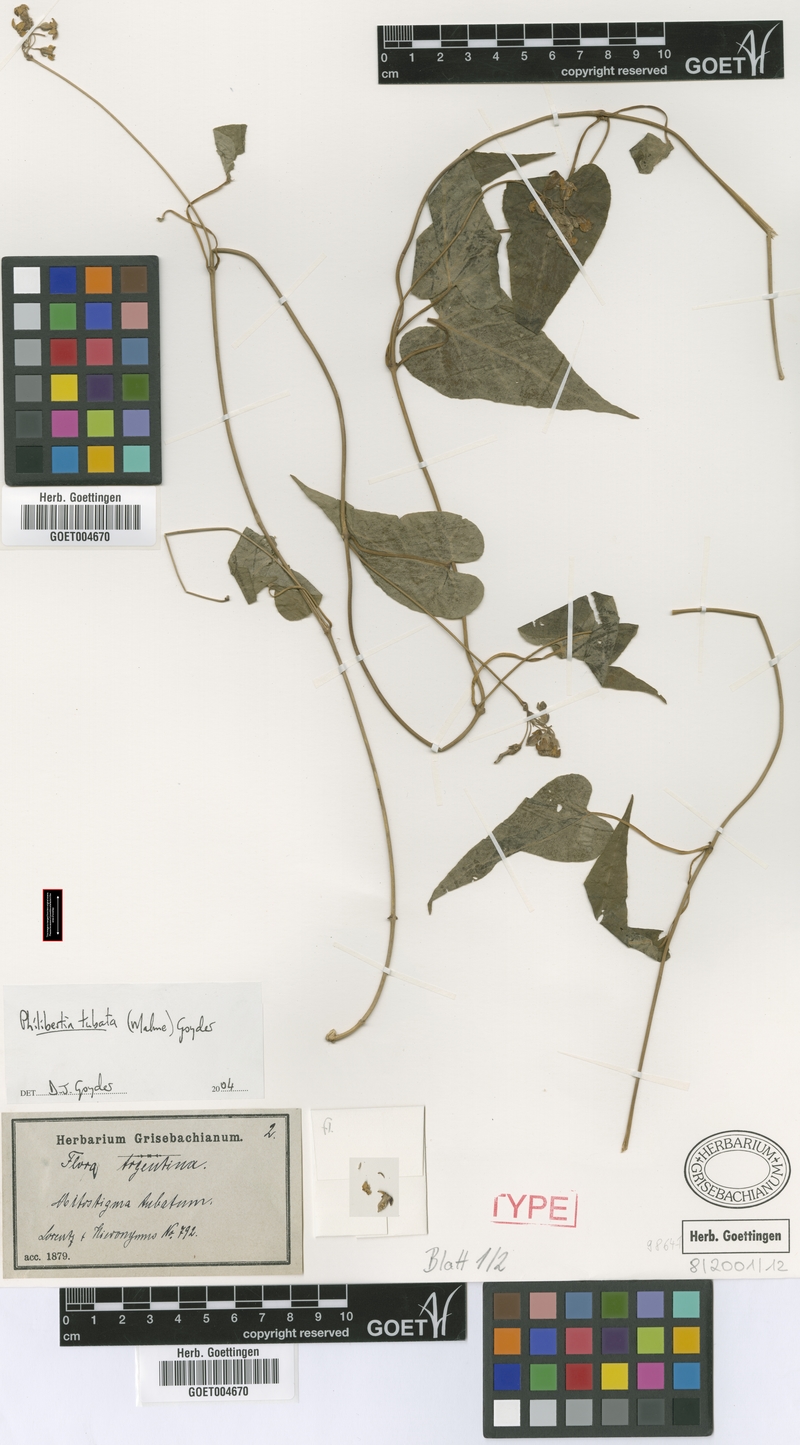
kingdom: Plantae
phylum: Tracheophyta
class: Magnoliopsida
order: Gentianales
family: Apocynaceae
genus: Philibertia
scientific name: Philibertia tubata
